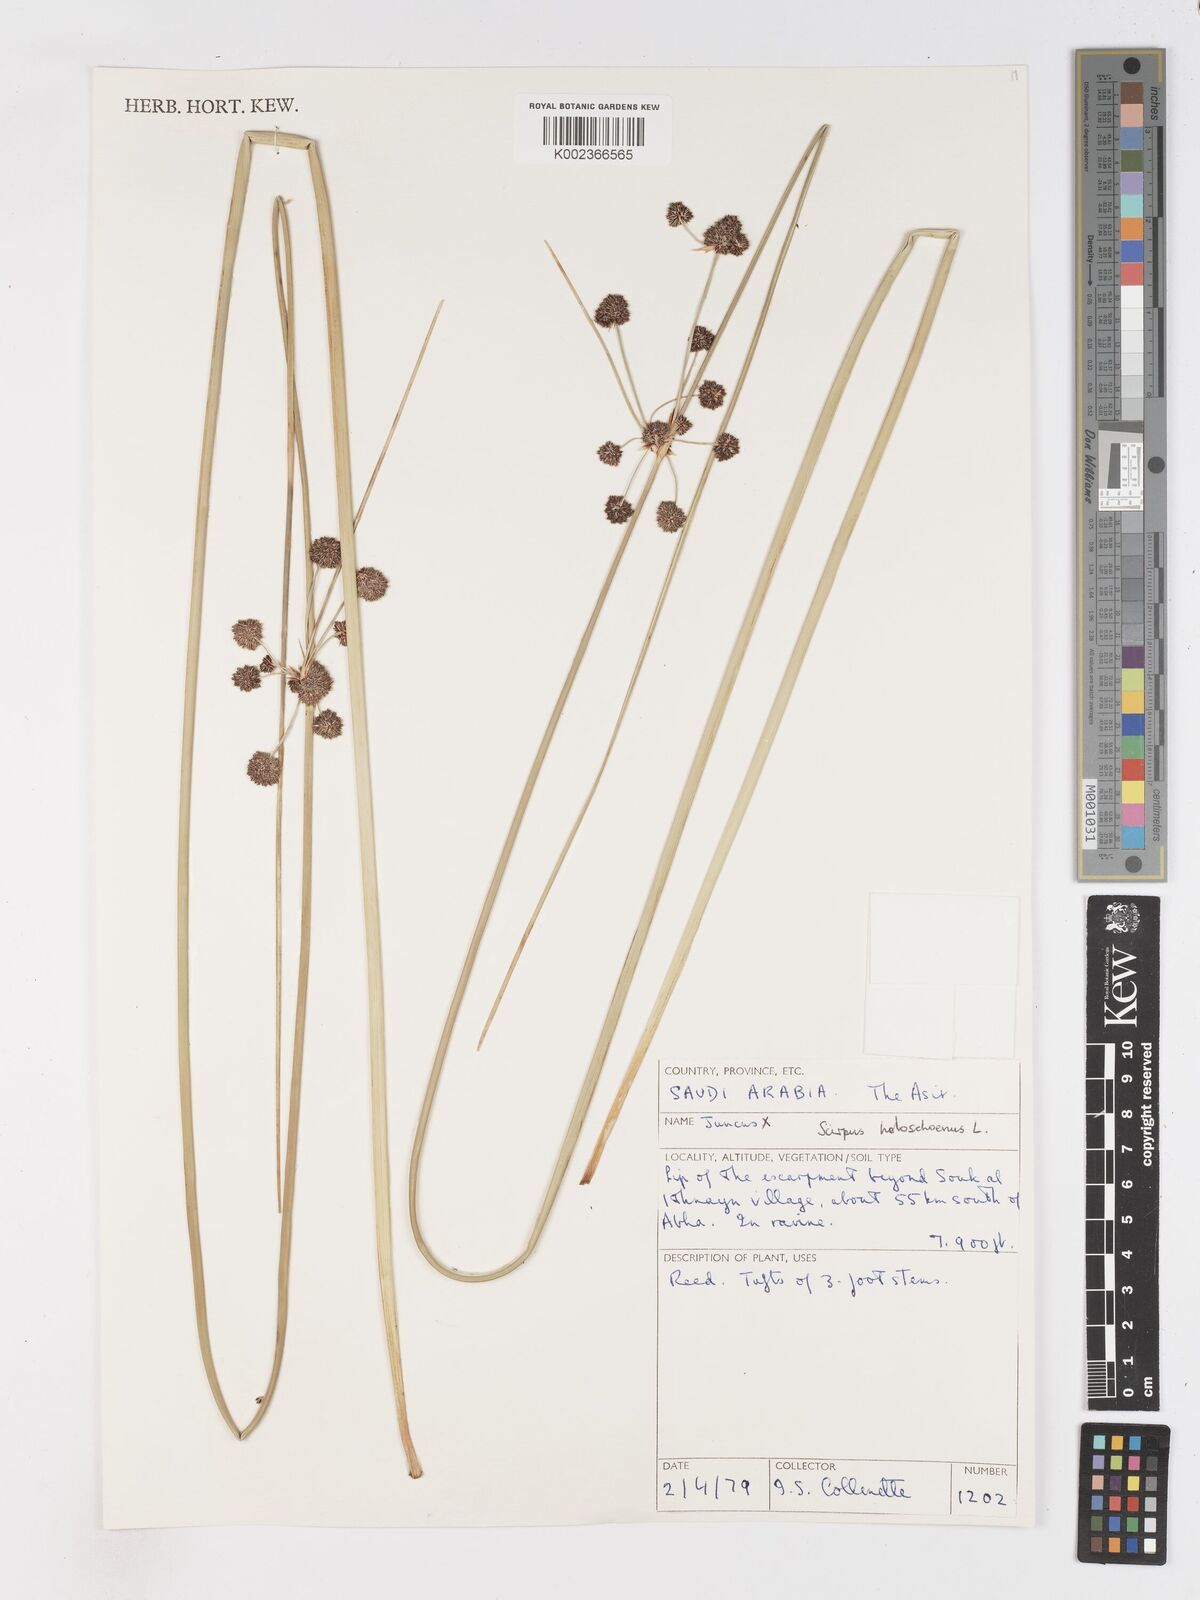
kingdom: Plantae
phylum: Tracheophyta
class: Liliopsida
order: Poales
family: Cyperaceae
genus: Scirpoides
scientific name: Scirpoides holoschoenus
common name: Round-headed club-rush
